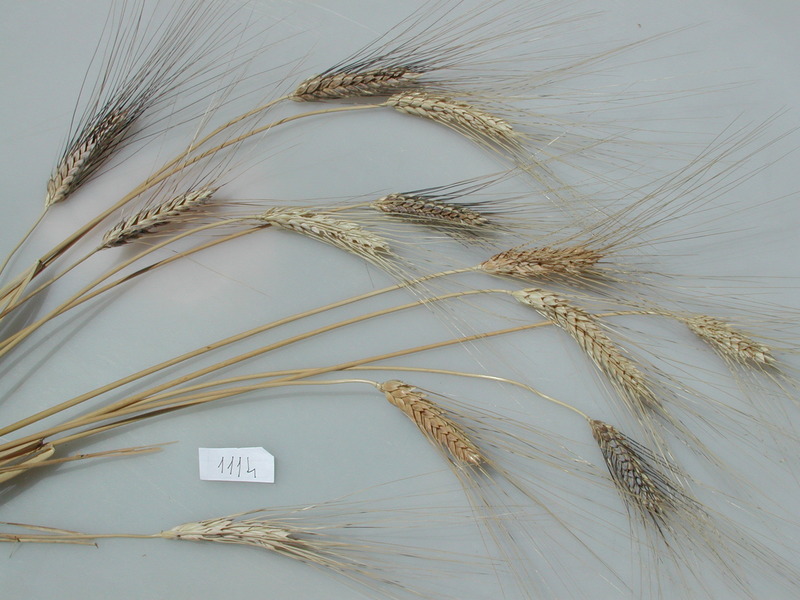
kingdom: Plantae
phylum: Tracheophyta
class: Liliopsida
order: Poales
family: Poaceae
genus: Triticum
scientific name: Triticum turgidum
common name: Wheat
